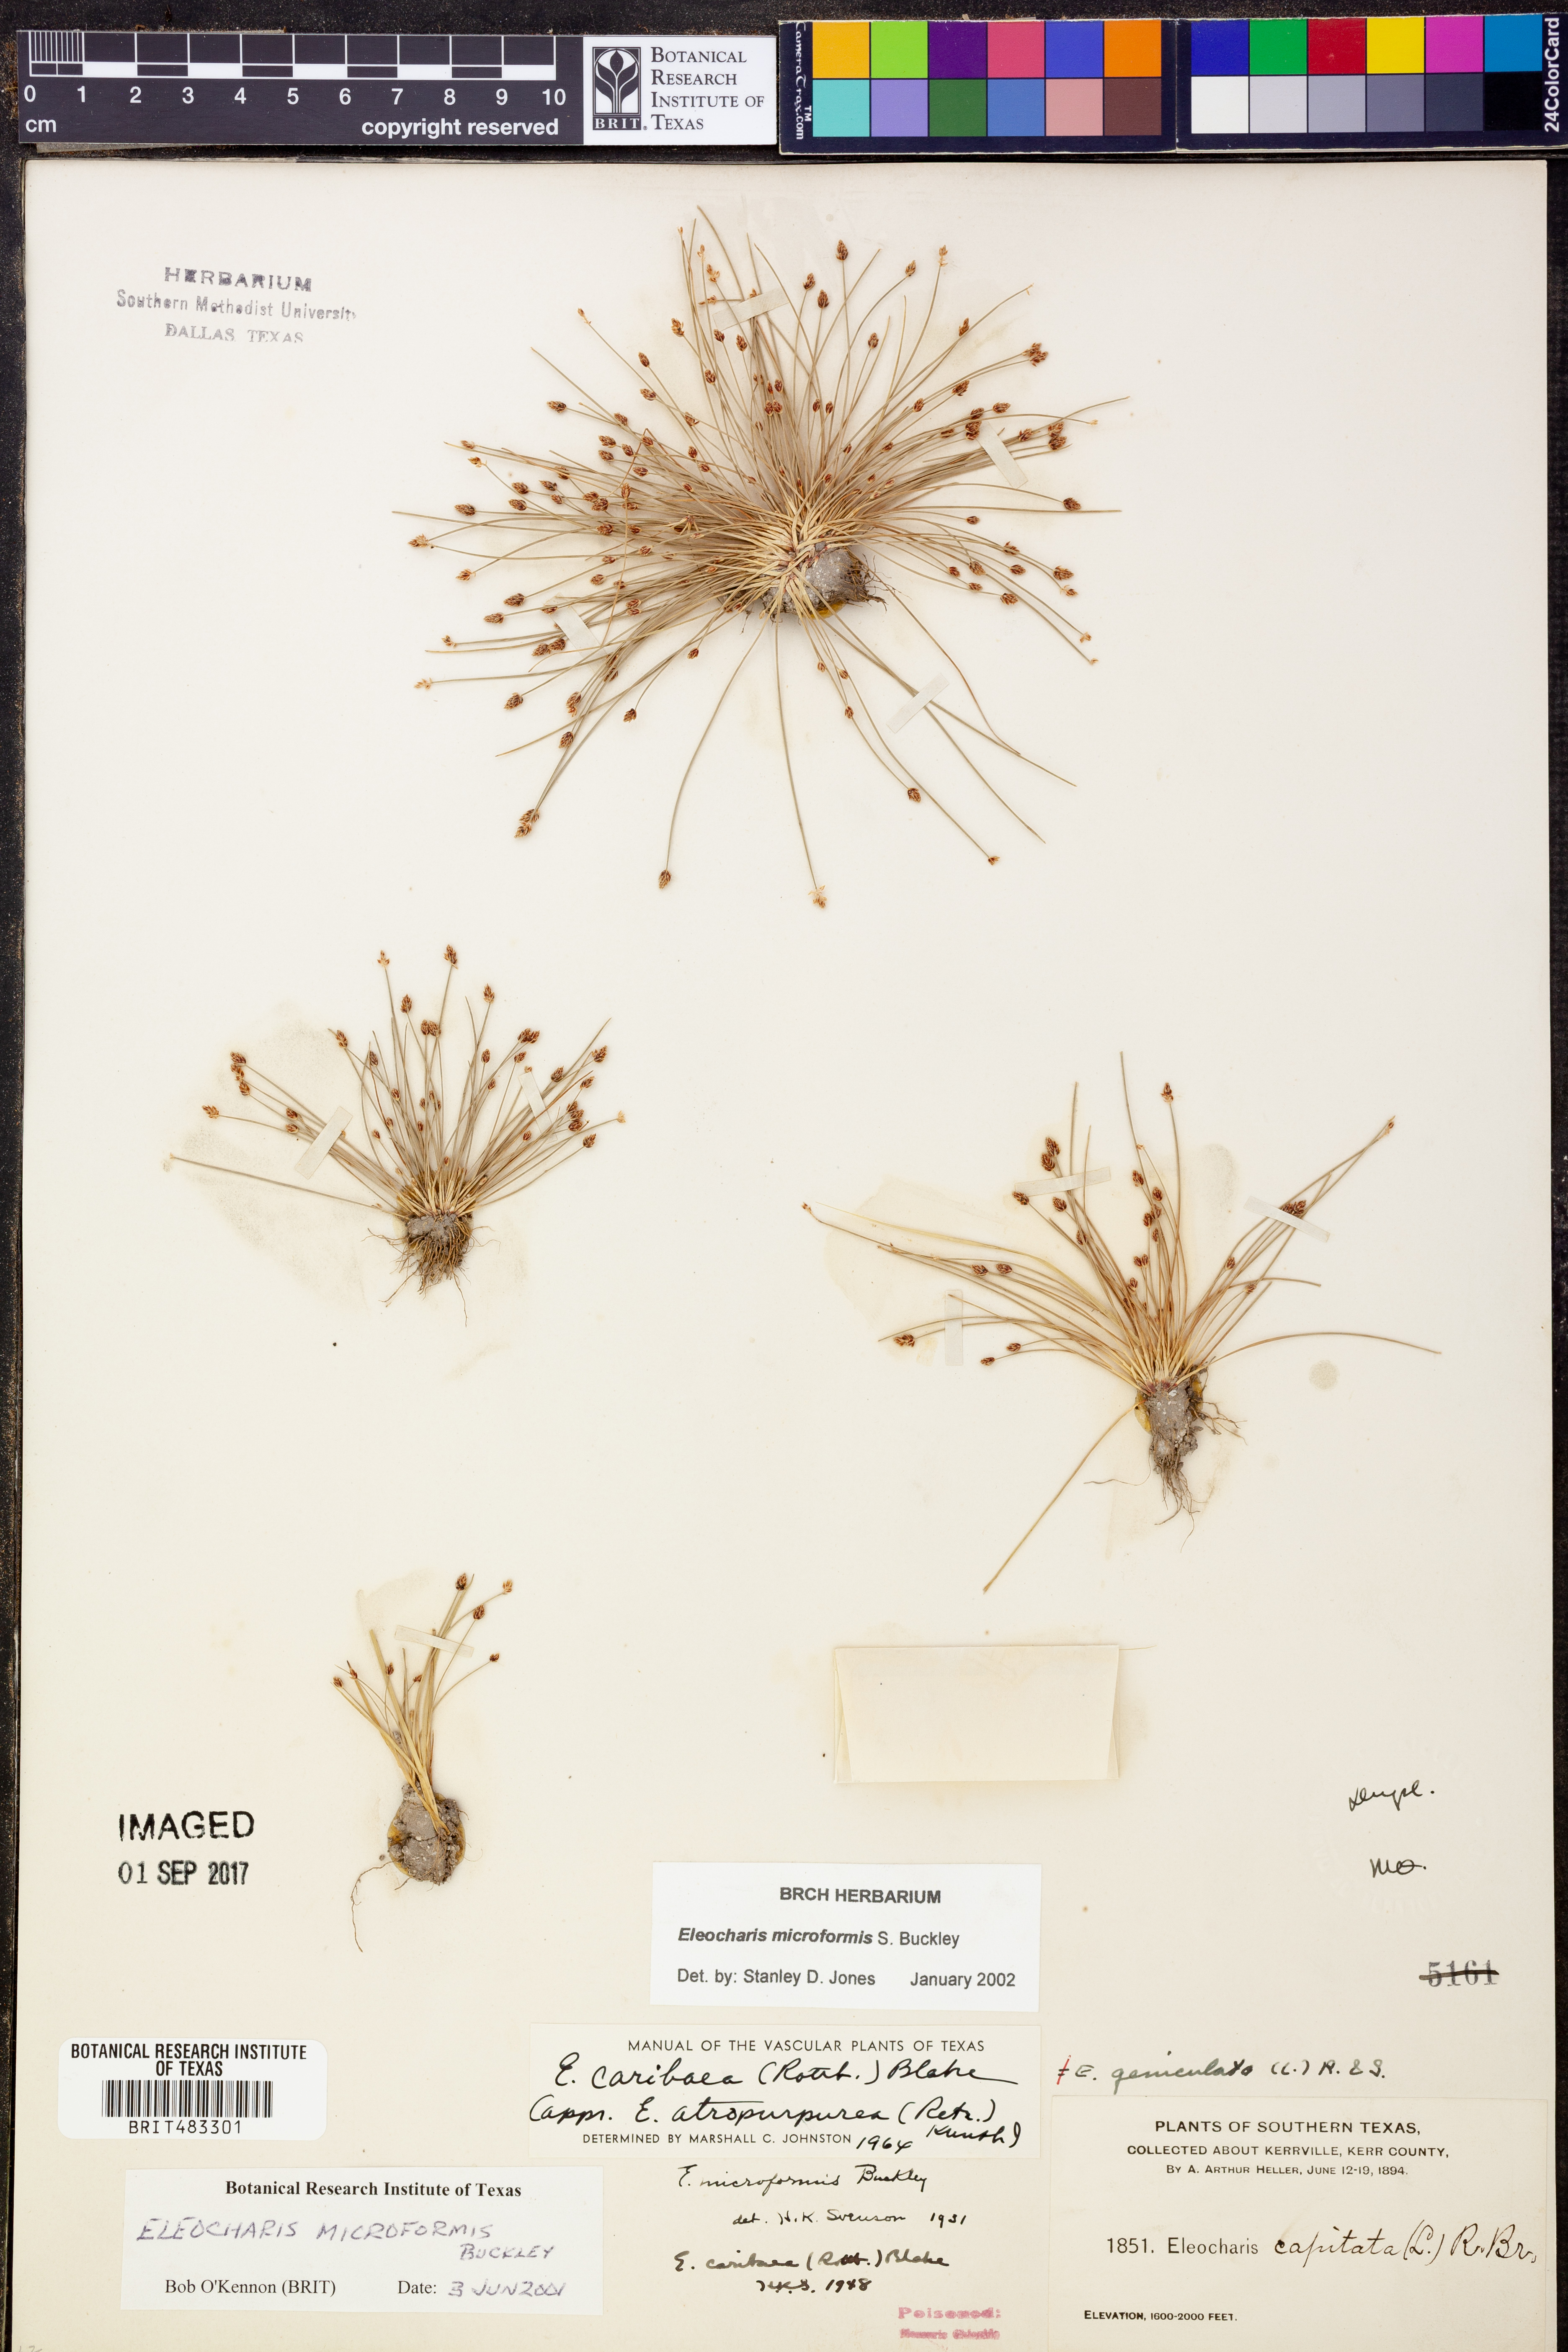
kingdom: Plantae
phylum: Tracheophyta
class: Liliopsida
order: Poales
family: Cyperaceae
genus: Eleocharis
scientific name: Eleocharis microformis
